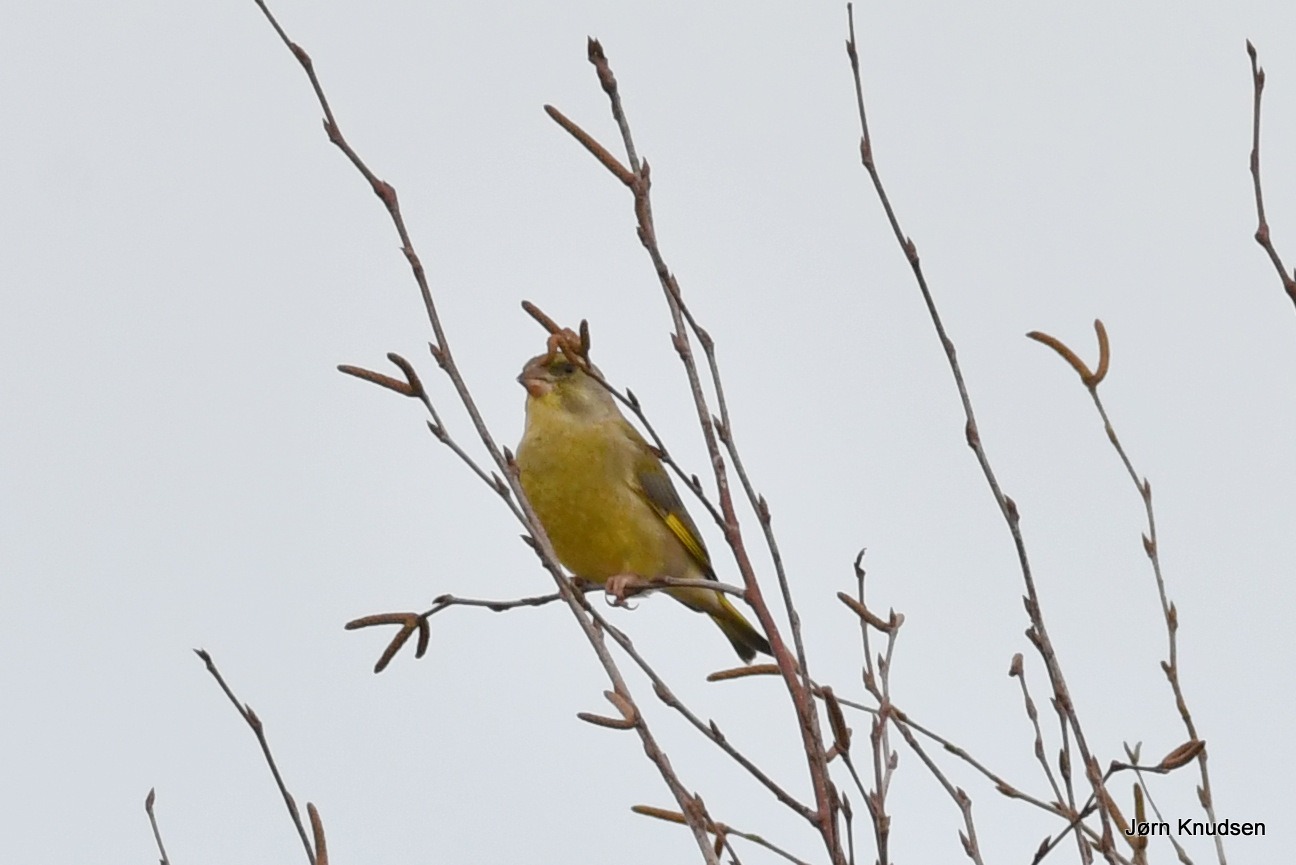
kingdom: Plantae
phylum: Tracheophyta
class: Liliopsida
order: Poales
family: Poaceae
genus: Chloris
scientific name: Chloris chloris
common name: Grønirisk
